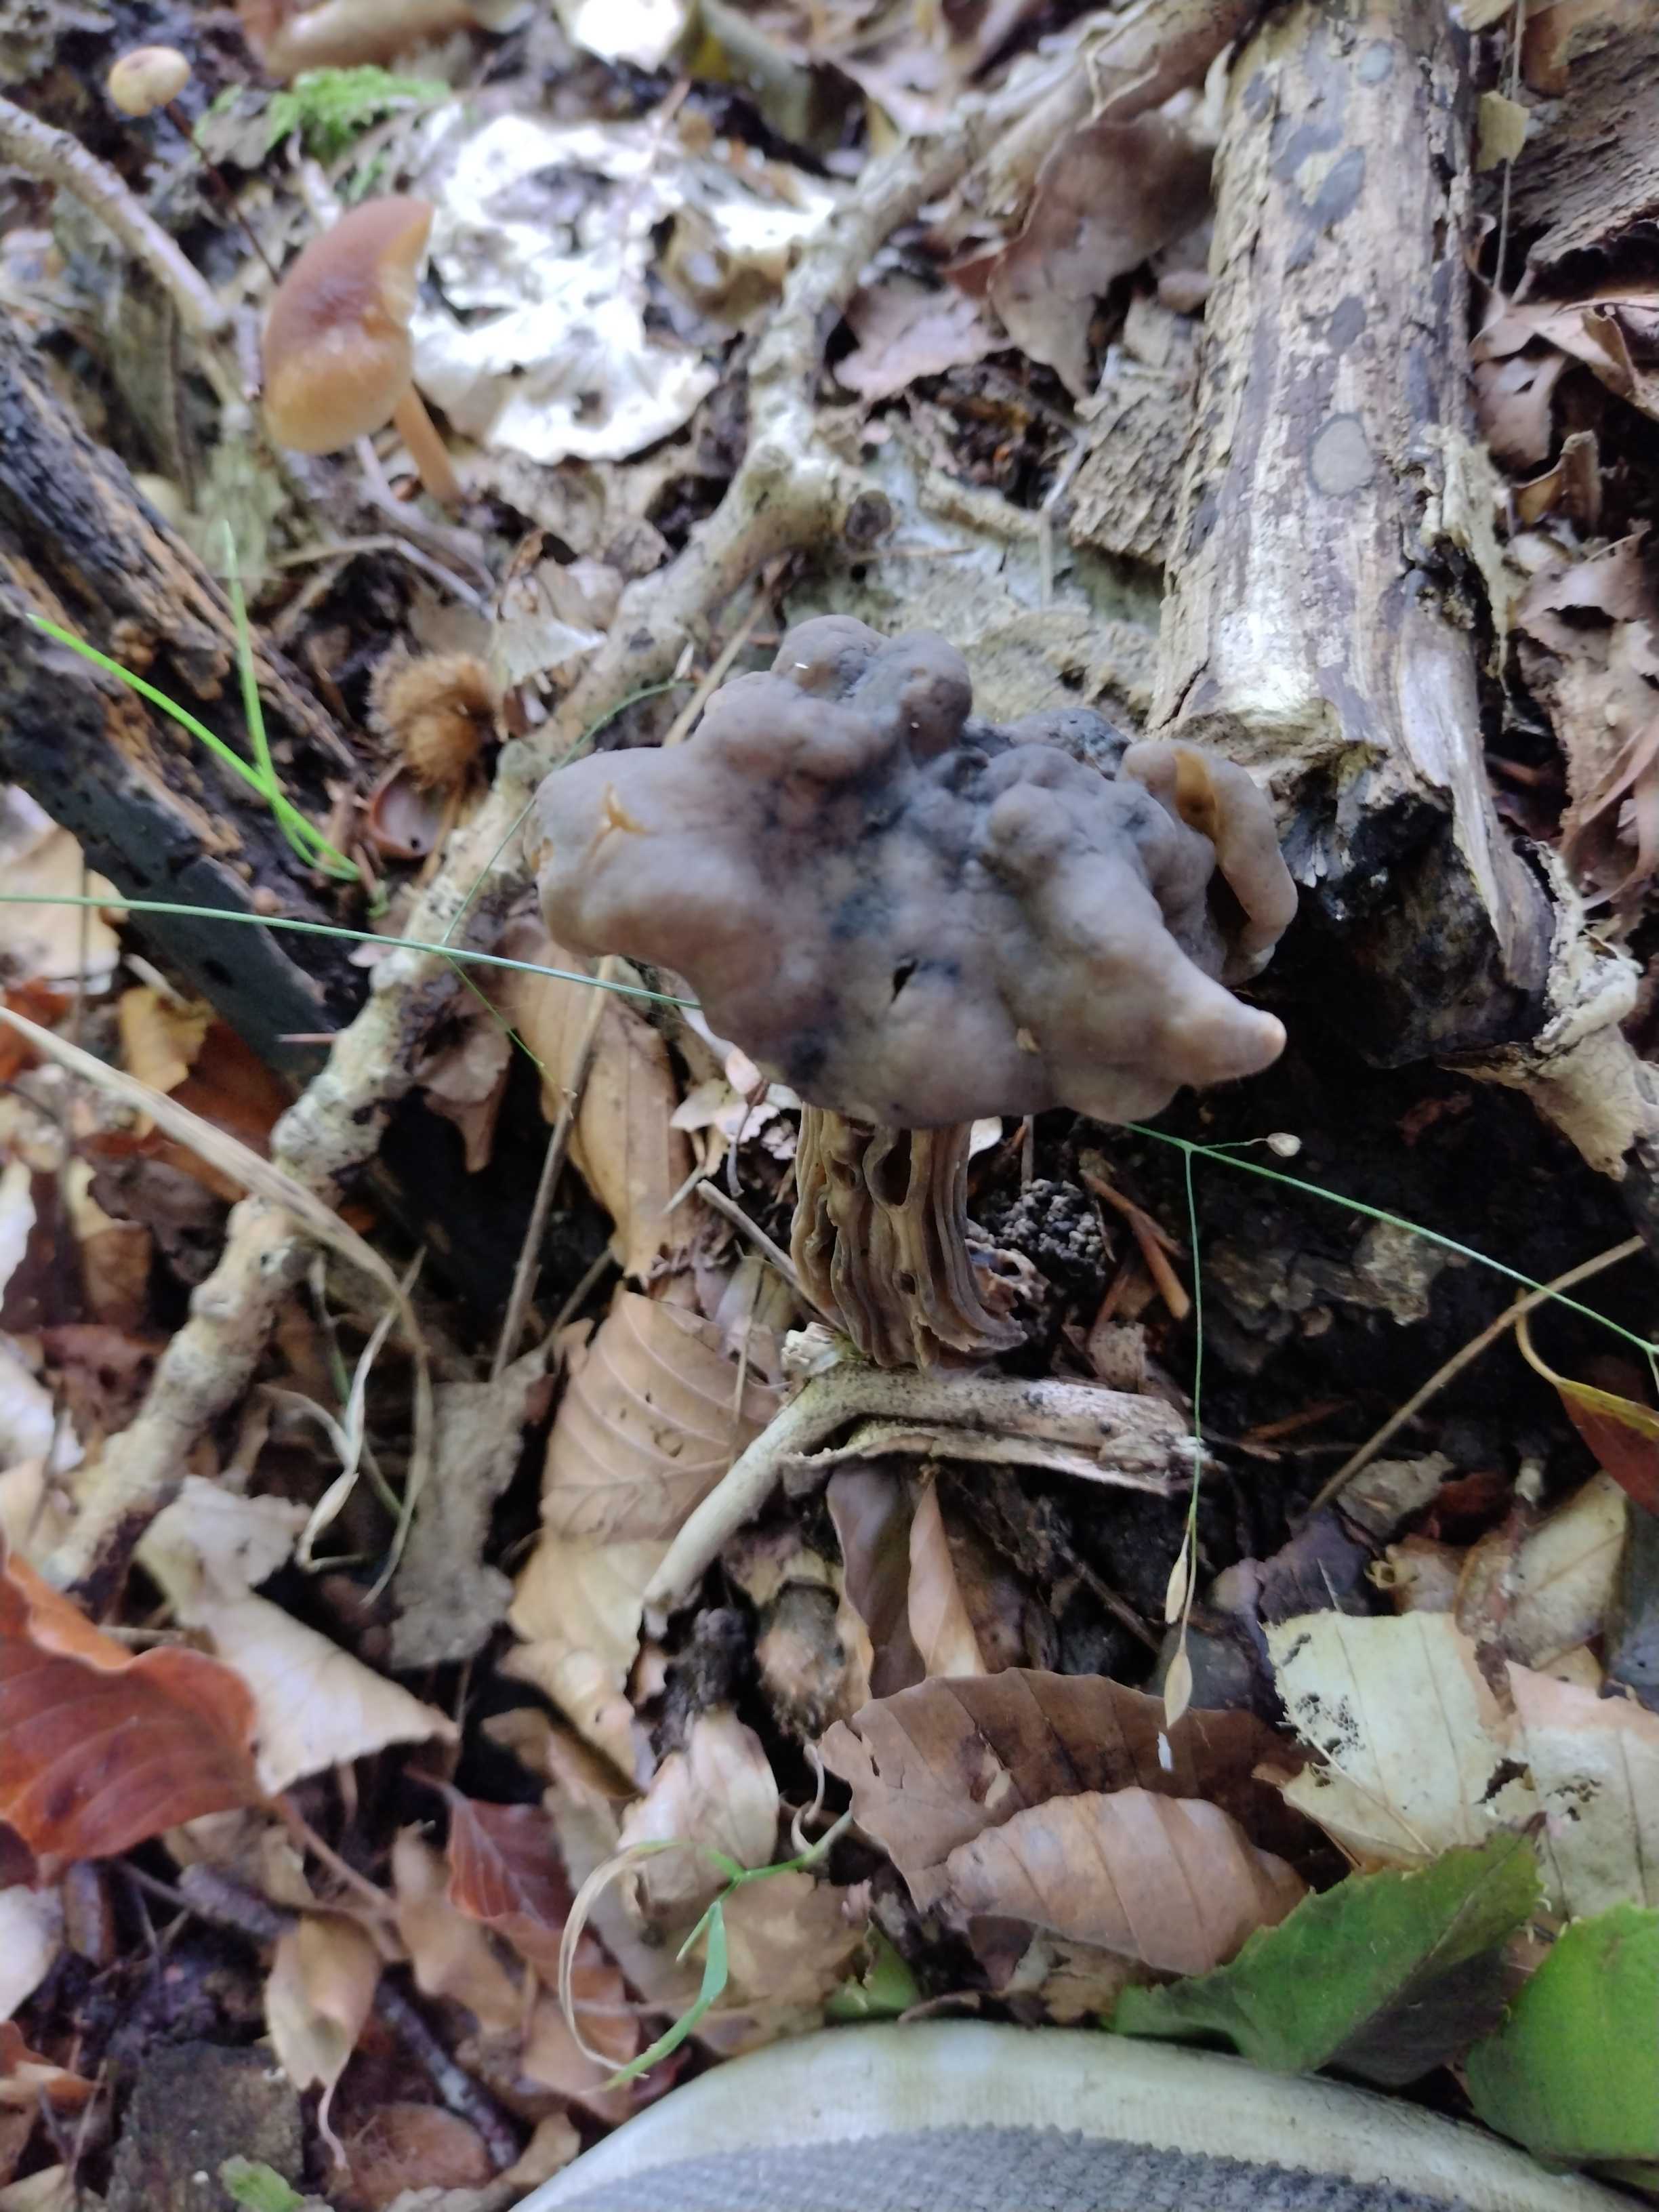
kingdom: Fungi
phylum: Ascomycota
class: Pezizomycetes
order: Pezizales
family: Helvellaceae
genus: Helvella
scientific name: Helvella lacunosa
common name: grubet foldhat
